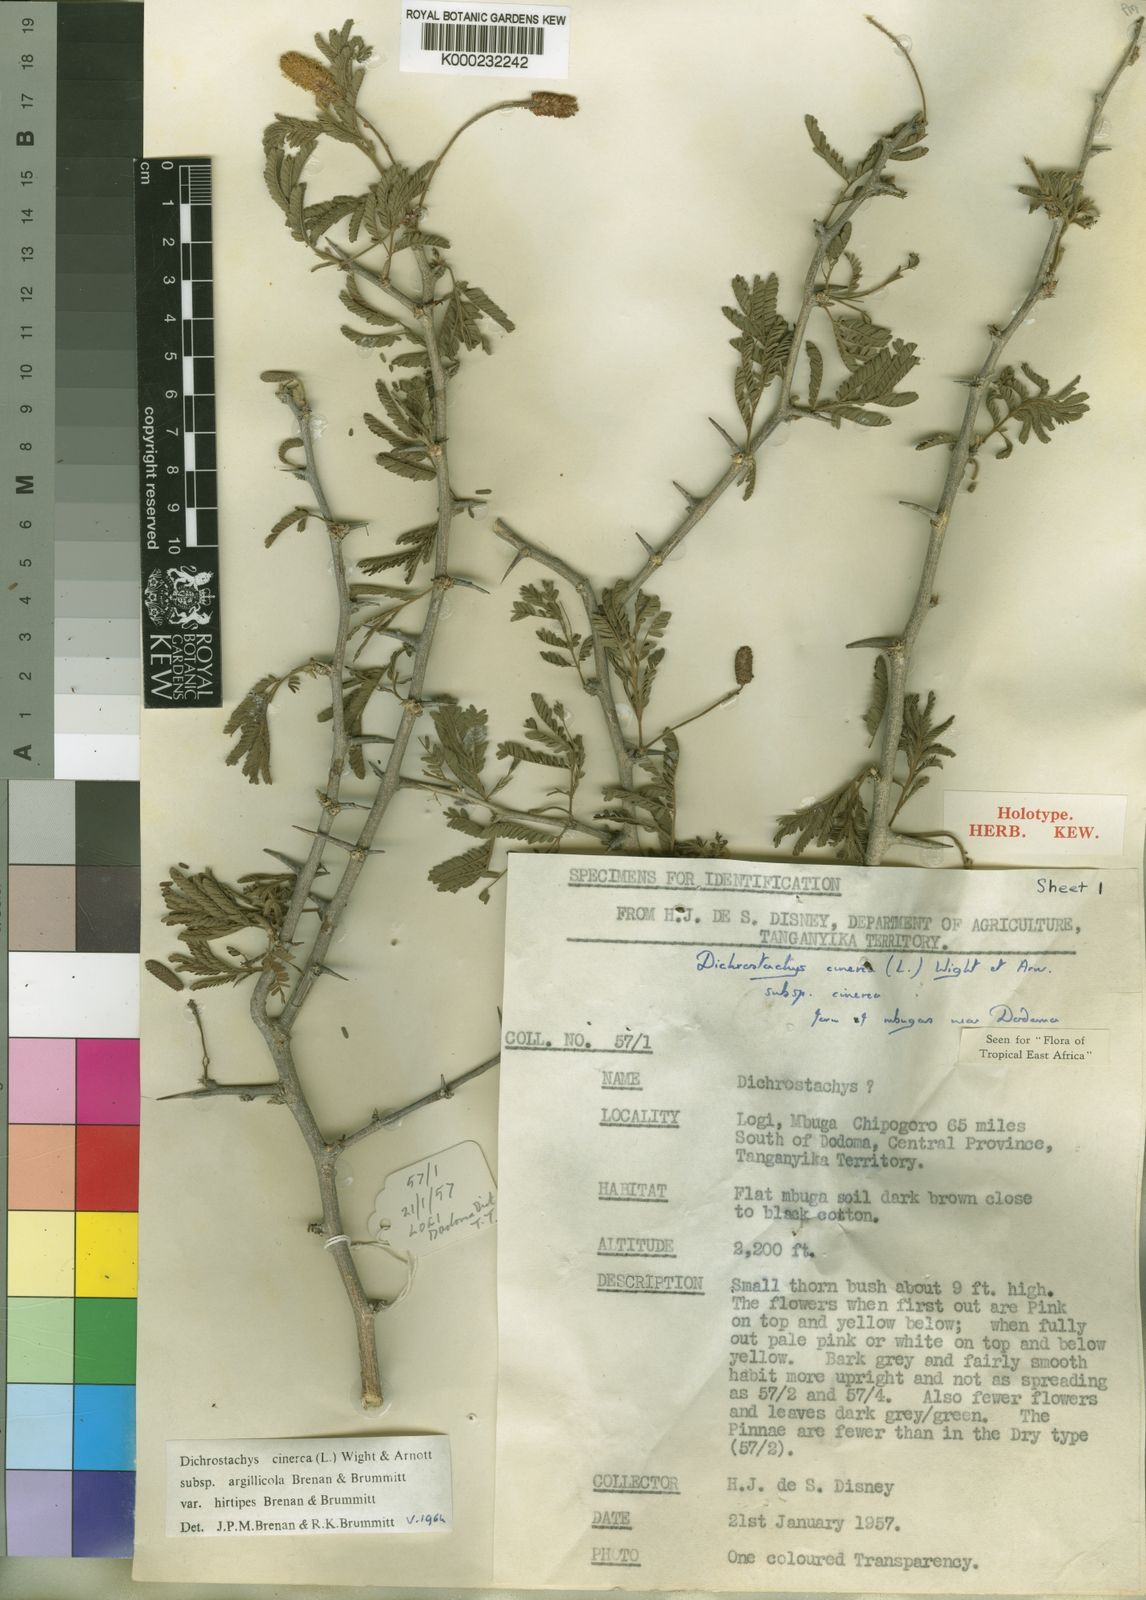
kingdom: Plantae
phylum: Tracheophyta
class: Magnoliopsida
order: Fabales
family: Fabaceae
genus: Dichrostachys
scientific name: Dichrostachys cinerea
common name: Sicklebush
